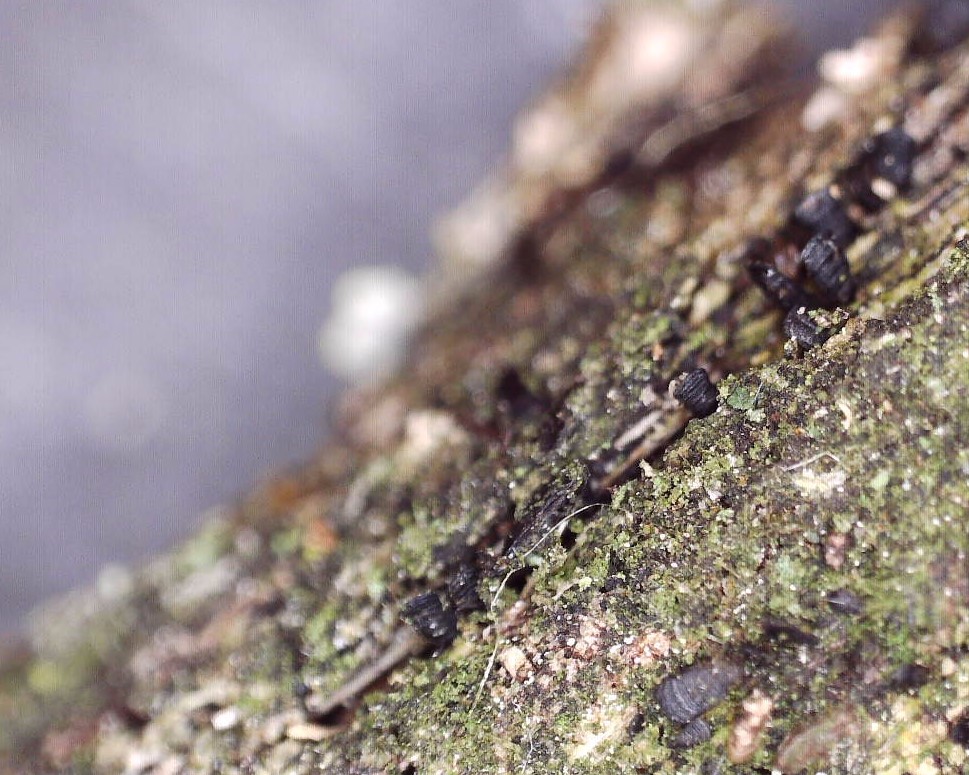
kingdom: Fungi
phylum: Ascomycota
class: Eurotiomycetes
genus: Glyphium
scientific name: Glyphium elatum
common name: kuløkse
